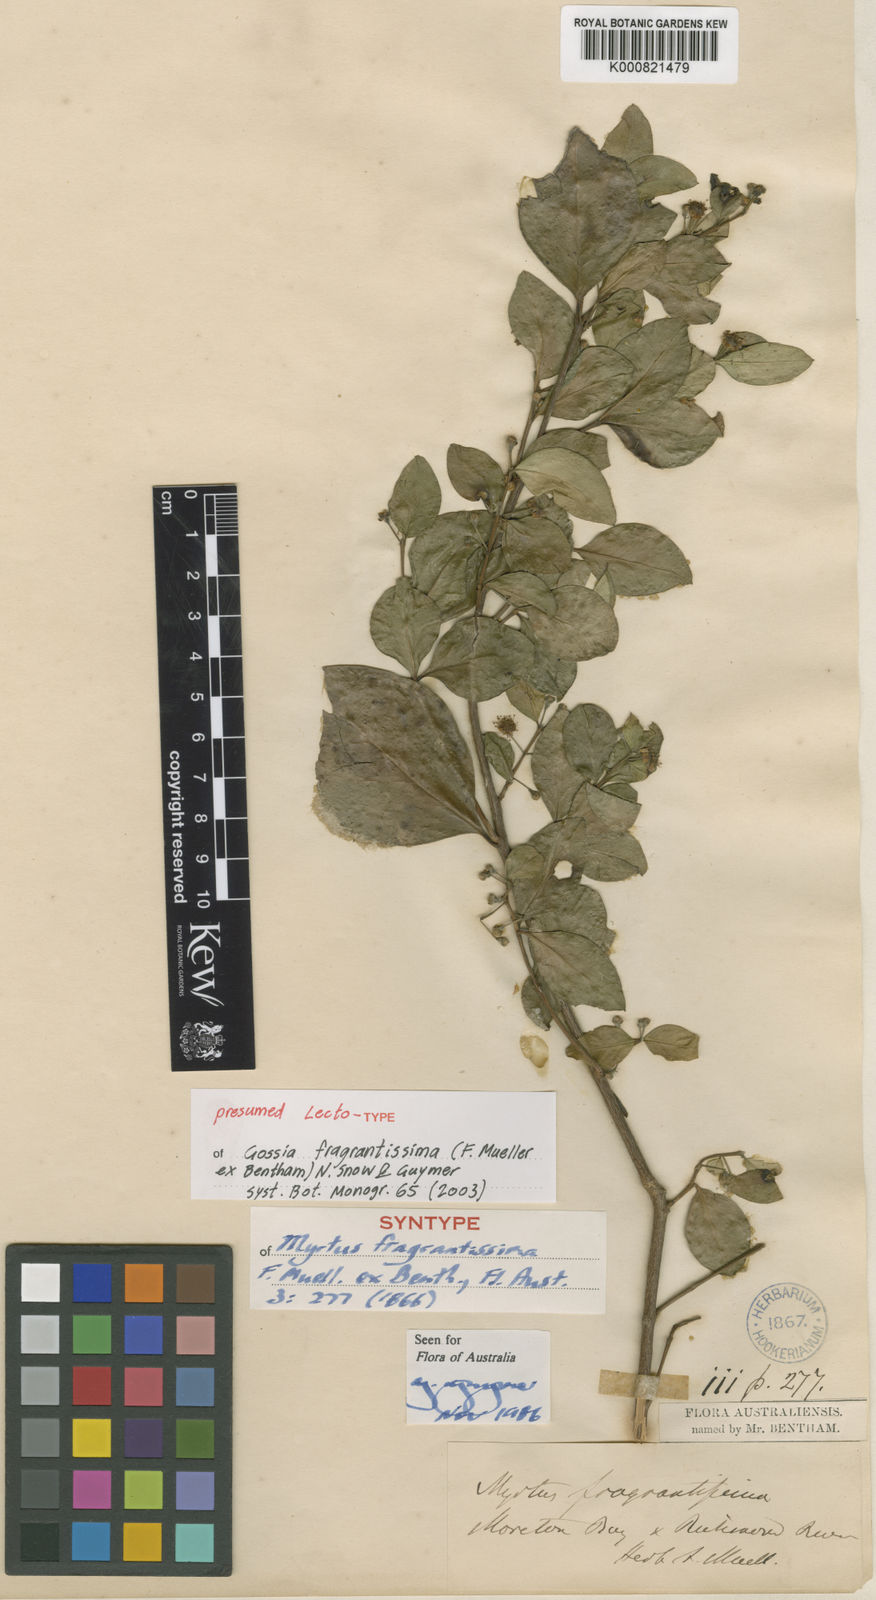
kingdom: Plantae
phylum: Tracheophyta
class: Magnoliopsida
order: Myrtales
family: Myrtaceae
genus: Gossia
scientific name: Gossia fragrantissima
